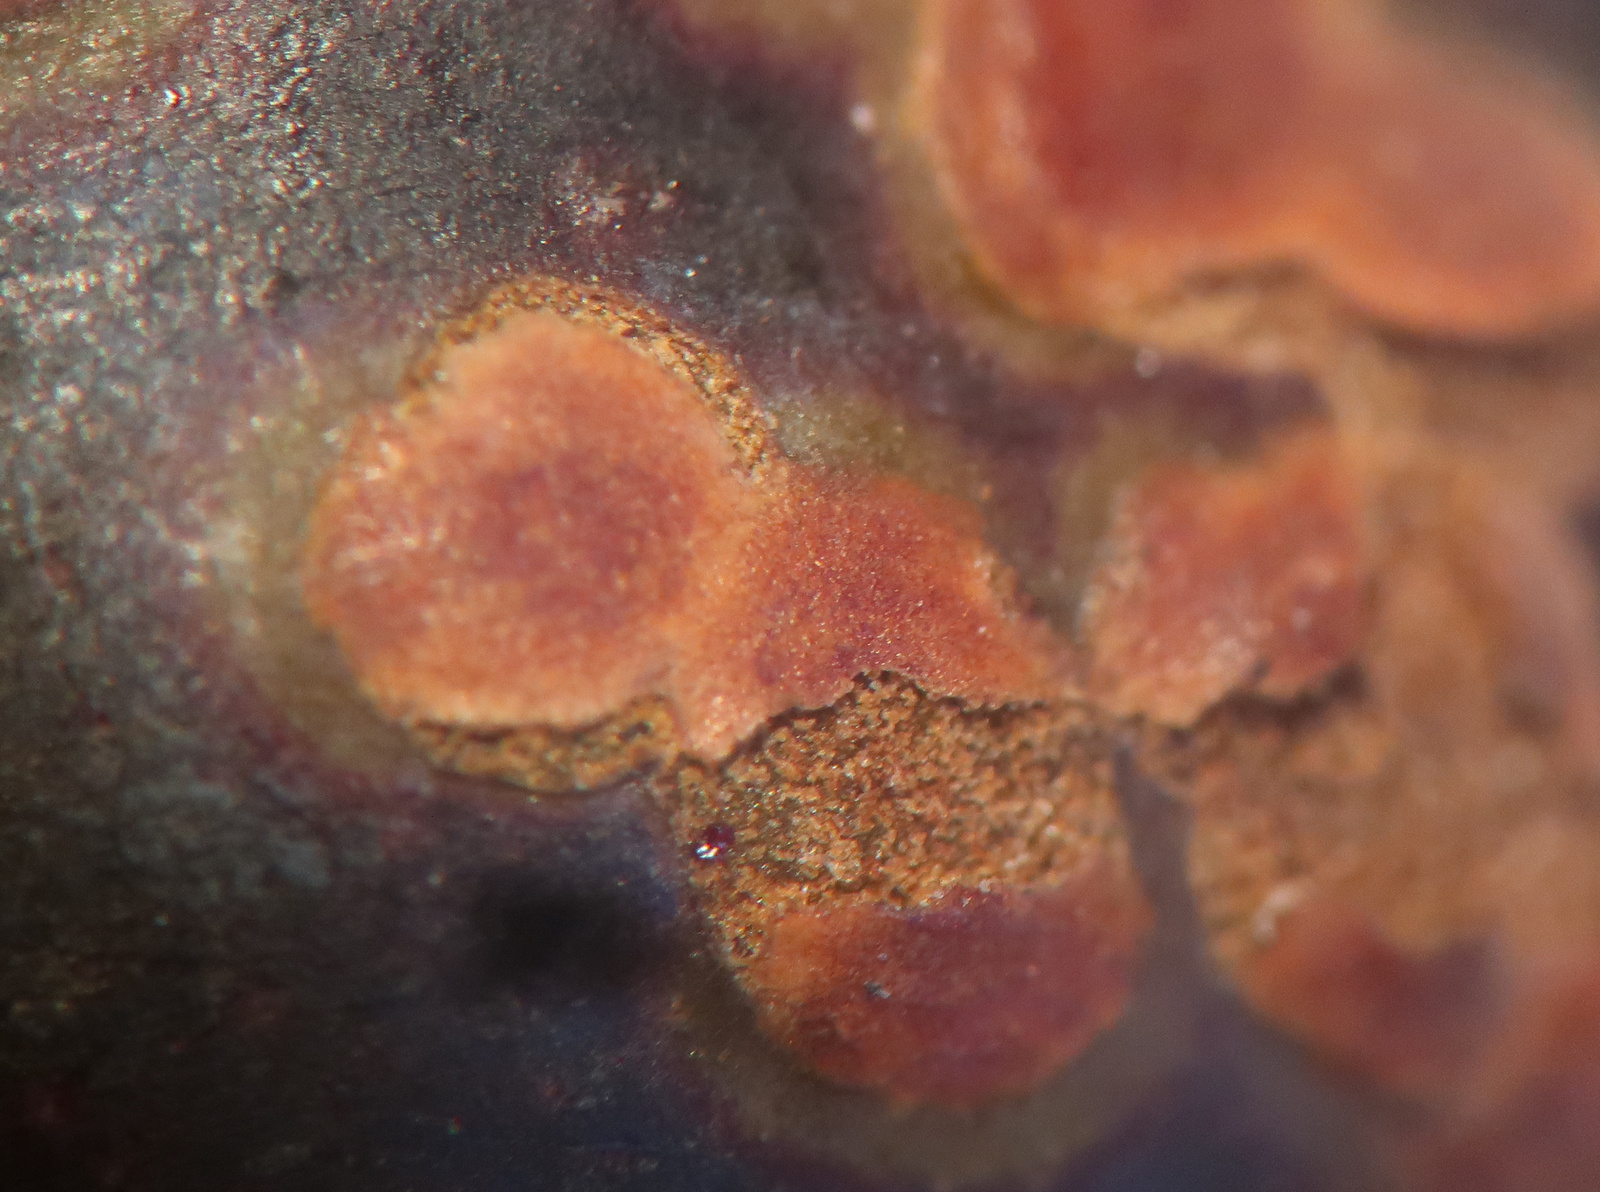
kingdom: Fungi
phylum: Ascomycota
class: Dothideomycetes
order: Mycosphaerellales
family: Mycosphaerellaceae
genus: Stigmina
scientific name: Stigmina carpophila
